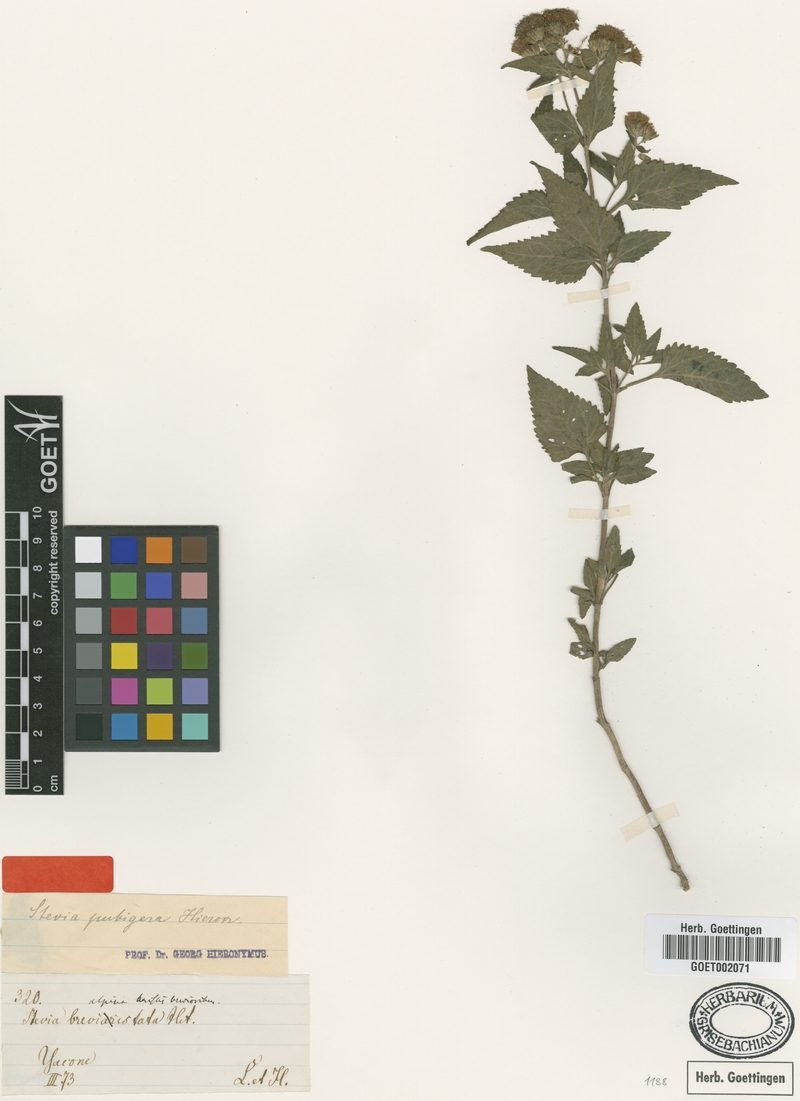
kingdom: Plantae
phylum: Tracheophyta
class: Magnoliopsida
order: Asterales
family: Asteraceae
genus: Stevia
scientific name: Stevia breviaristata
